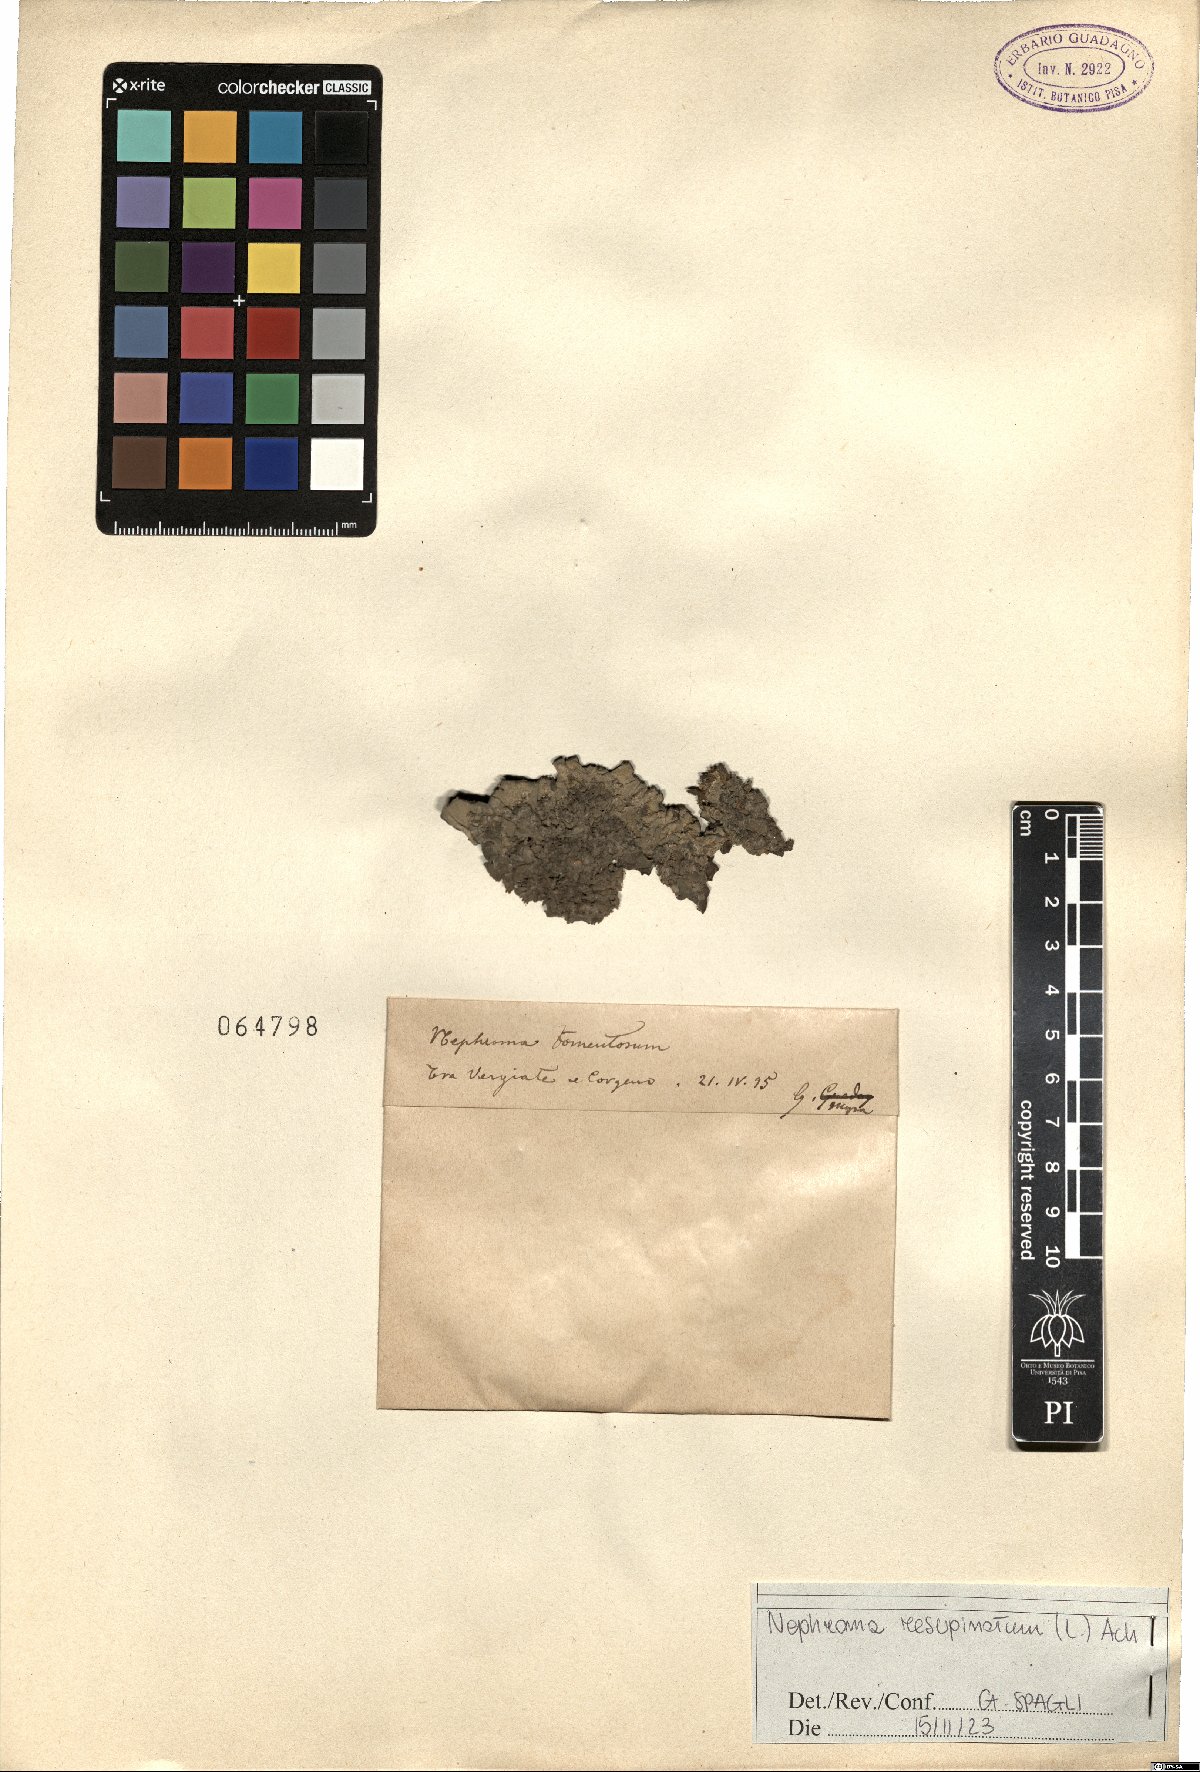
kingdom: Fungi
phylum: Ascomycota
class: Lecanoromycetes
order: Peltigerales
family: Nephromataceae
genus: Nephroma
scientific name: Nephroma resupinatum
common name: Pimpled kidney lichen
